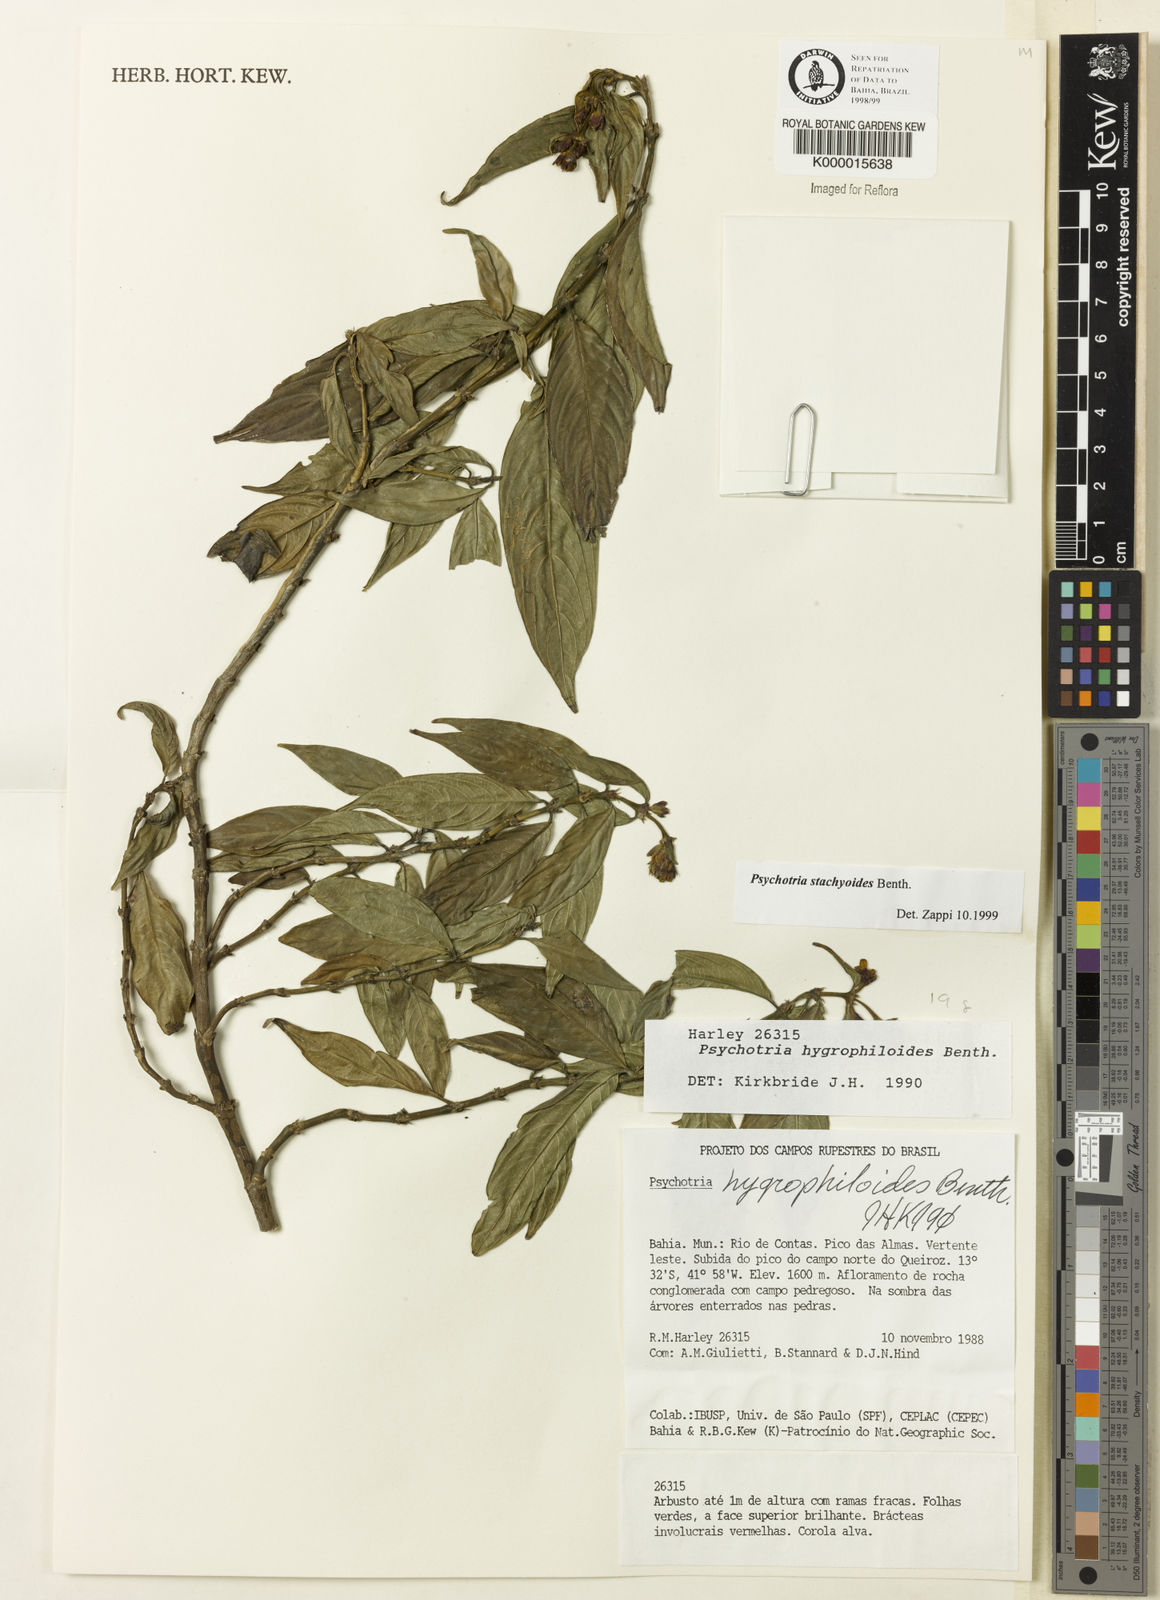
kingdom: Plantae
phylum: Tracheophyta
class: Magnoliopsida
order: Gentianales
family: Rubiaceae
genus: Psychotria
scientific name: Psychotria stachyoides
